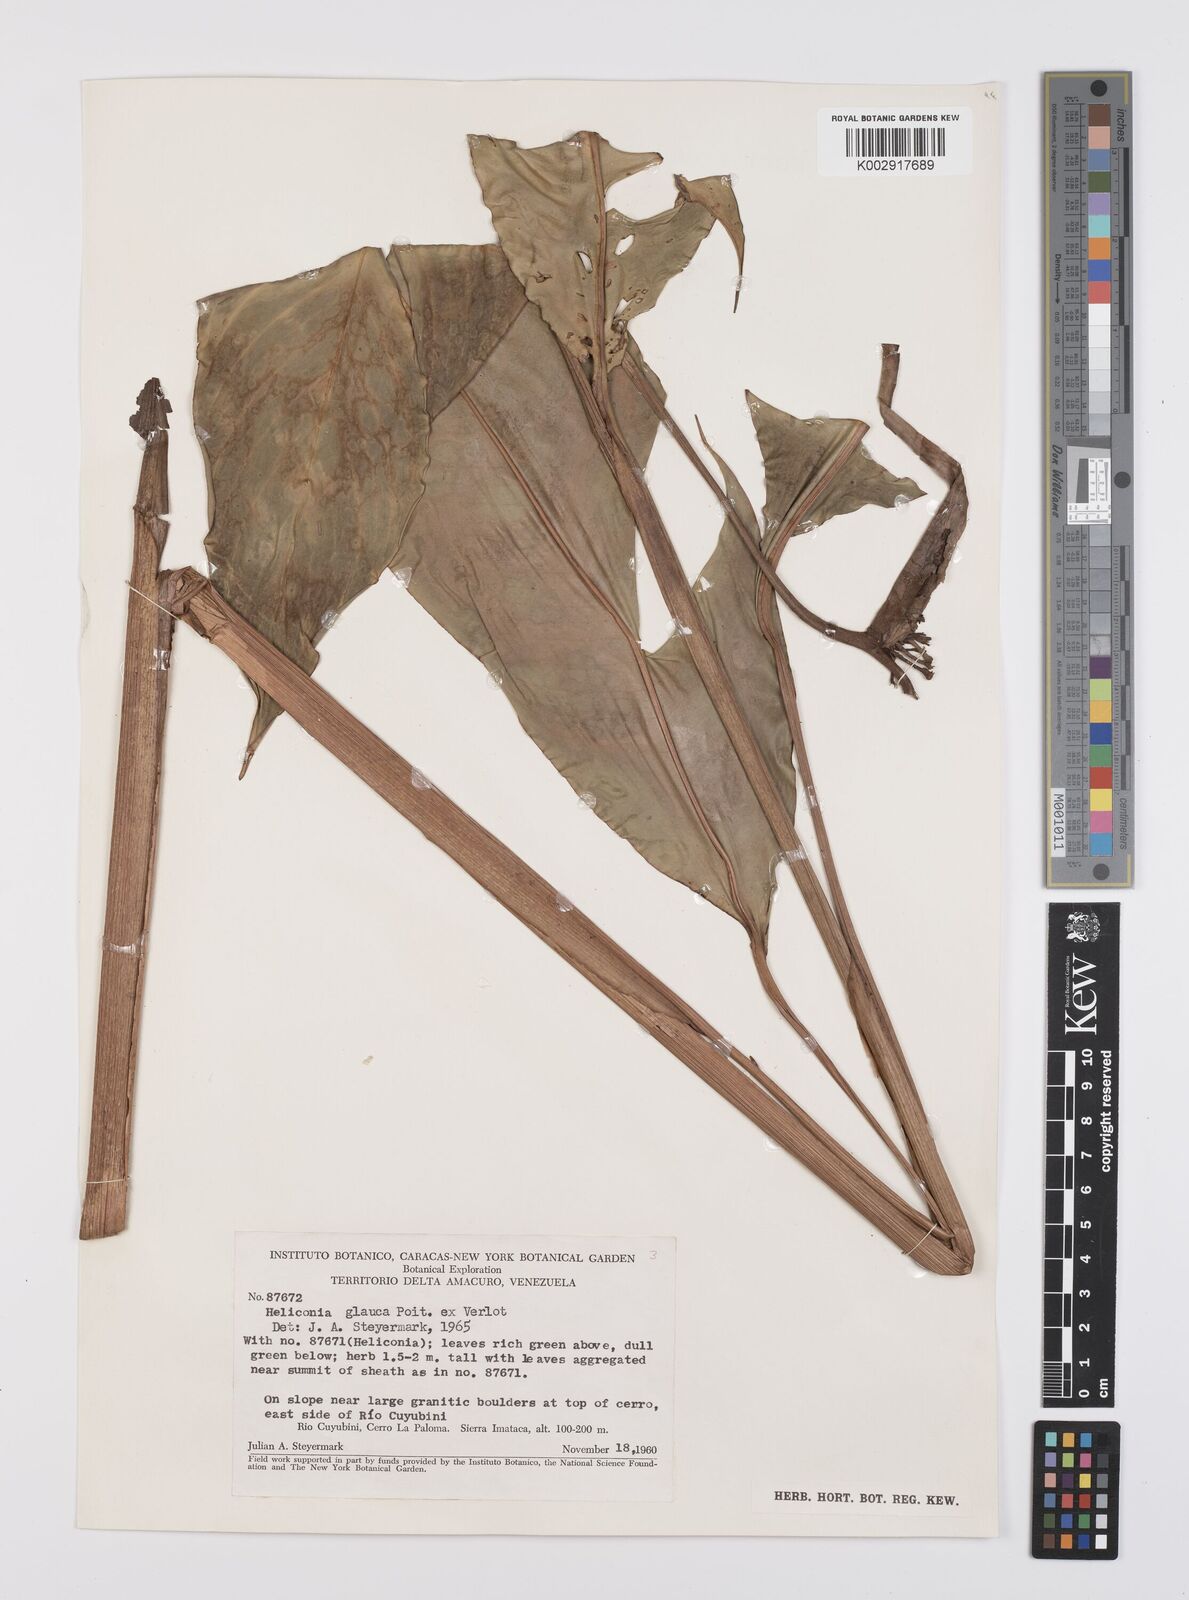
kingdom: Plantae
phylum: Tracheophyta
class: Liliopsida
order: Zingiberales
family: Heliconiaceae
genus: Heliconia
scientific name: Heliconia richardiana
